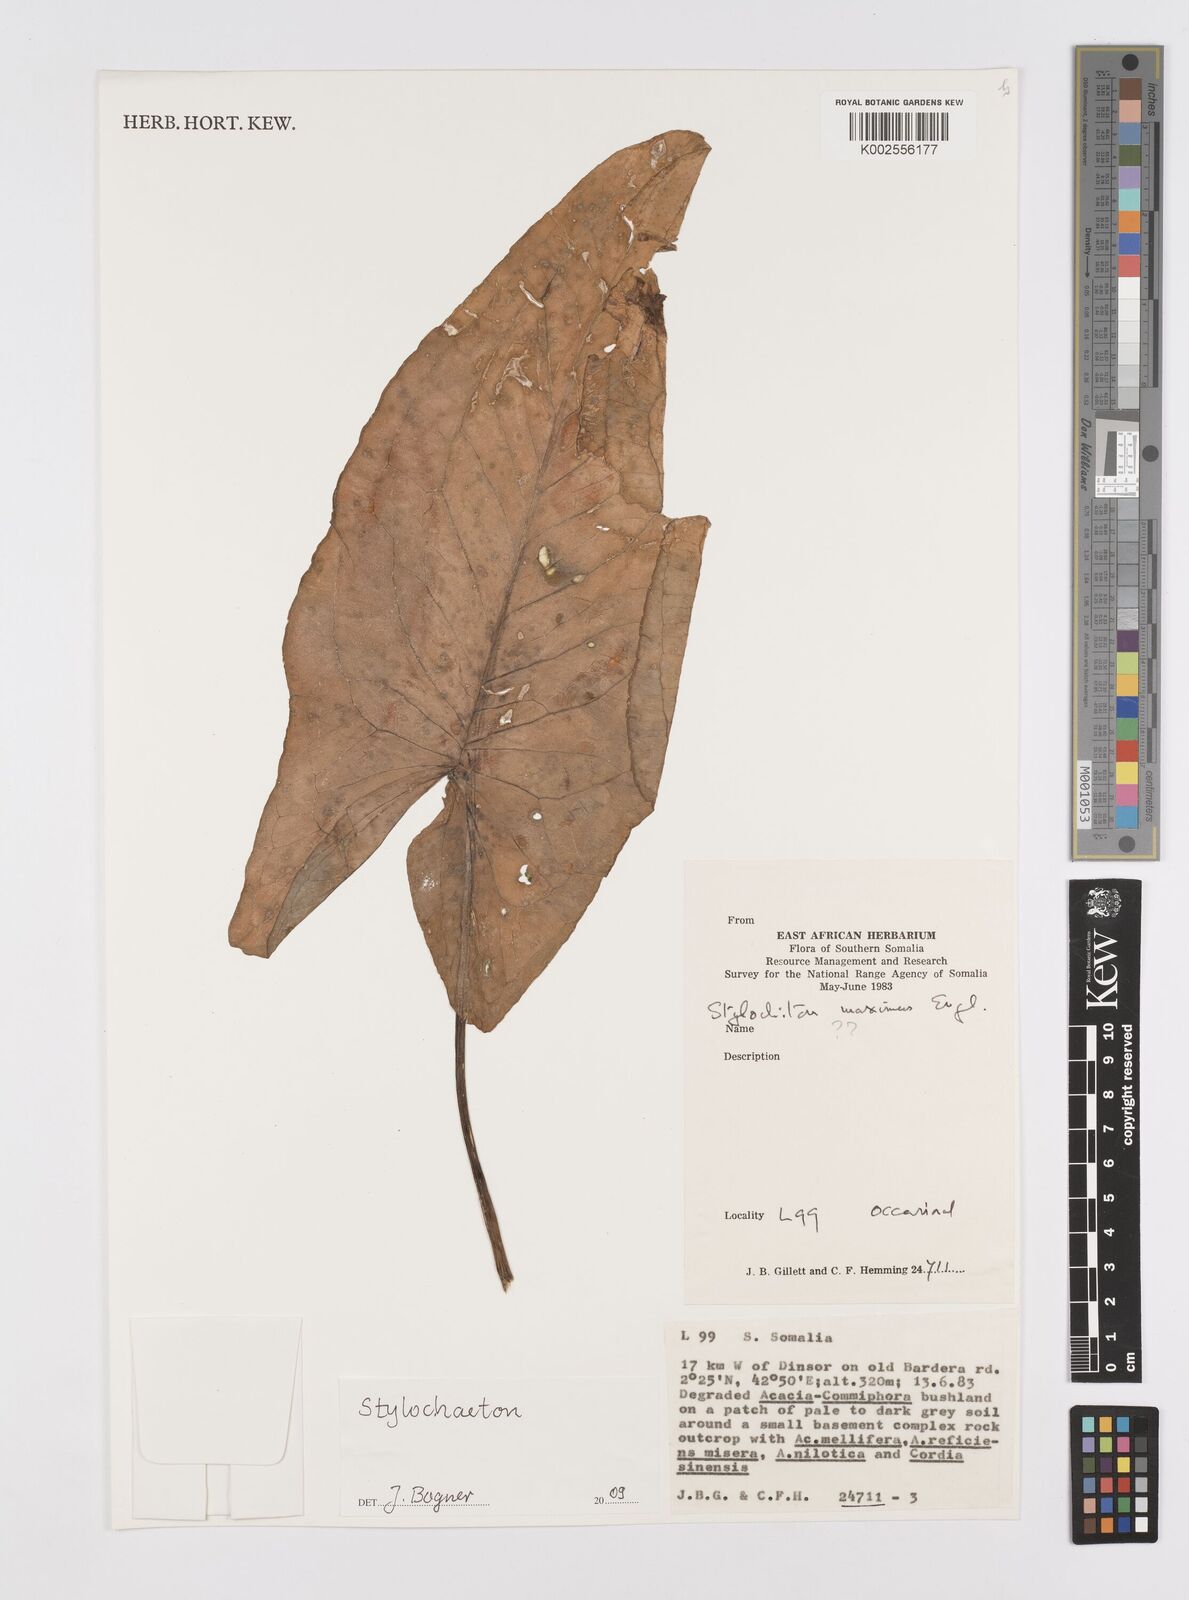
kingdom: Plantae
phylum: Tracheophyta
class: Liliopsida
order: Alismatales
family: Araceae
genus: Stylochaeton
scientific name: Stylochaeton
